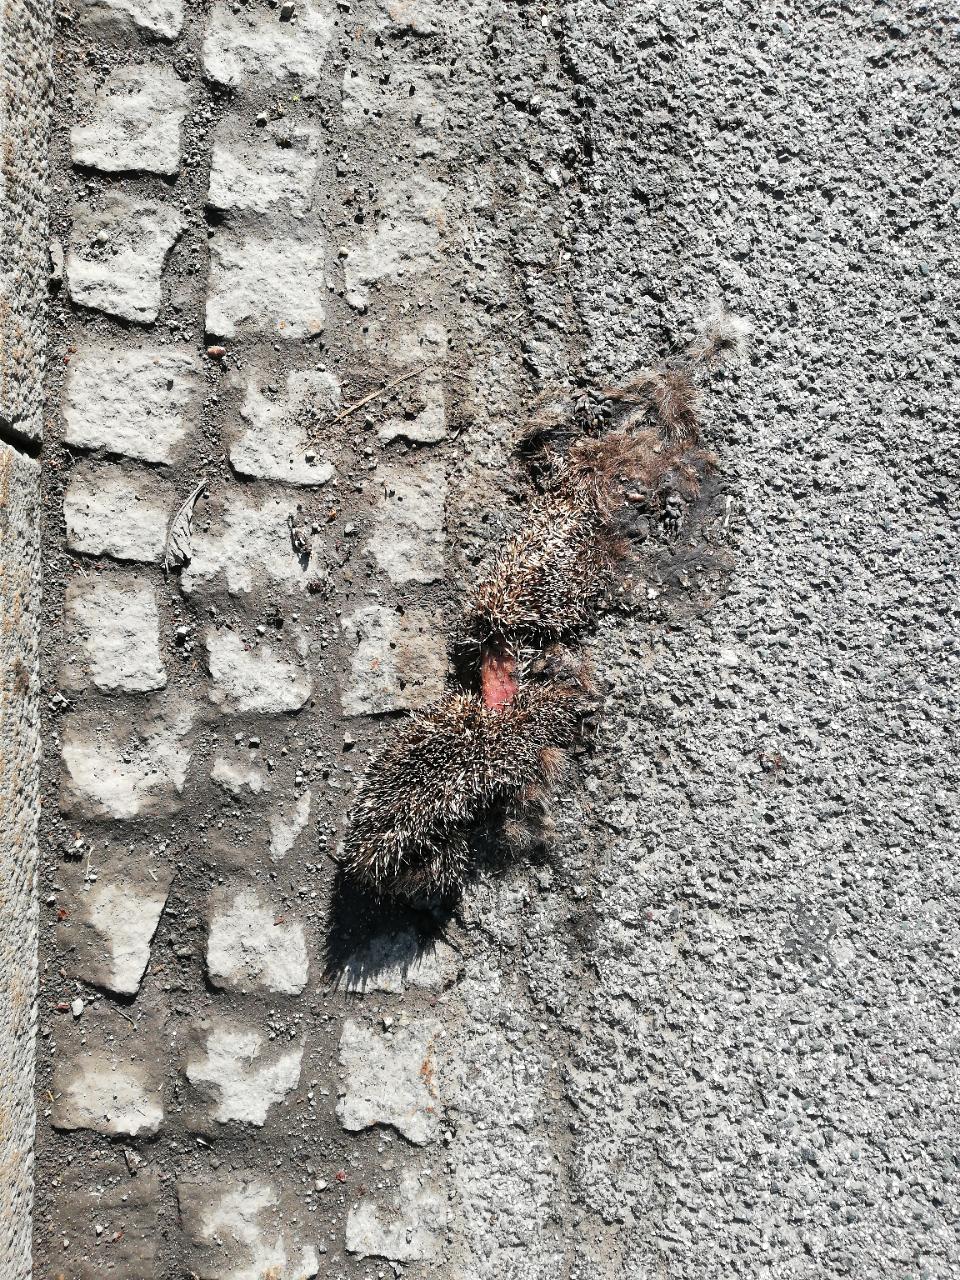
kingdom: Animalia
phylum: Chordata
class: Mammalia
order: Erinaceomorpha
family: Erinaceidae
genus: Erinaceus
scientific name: Erinaceus
